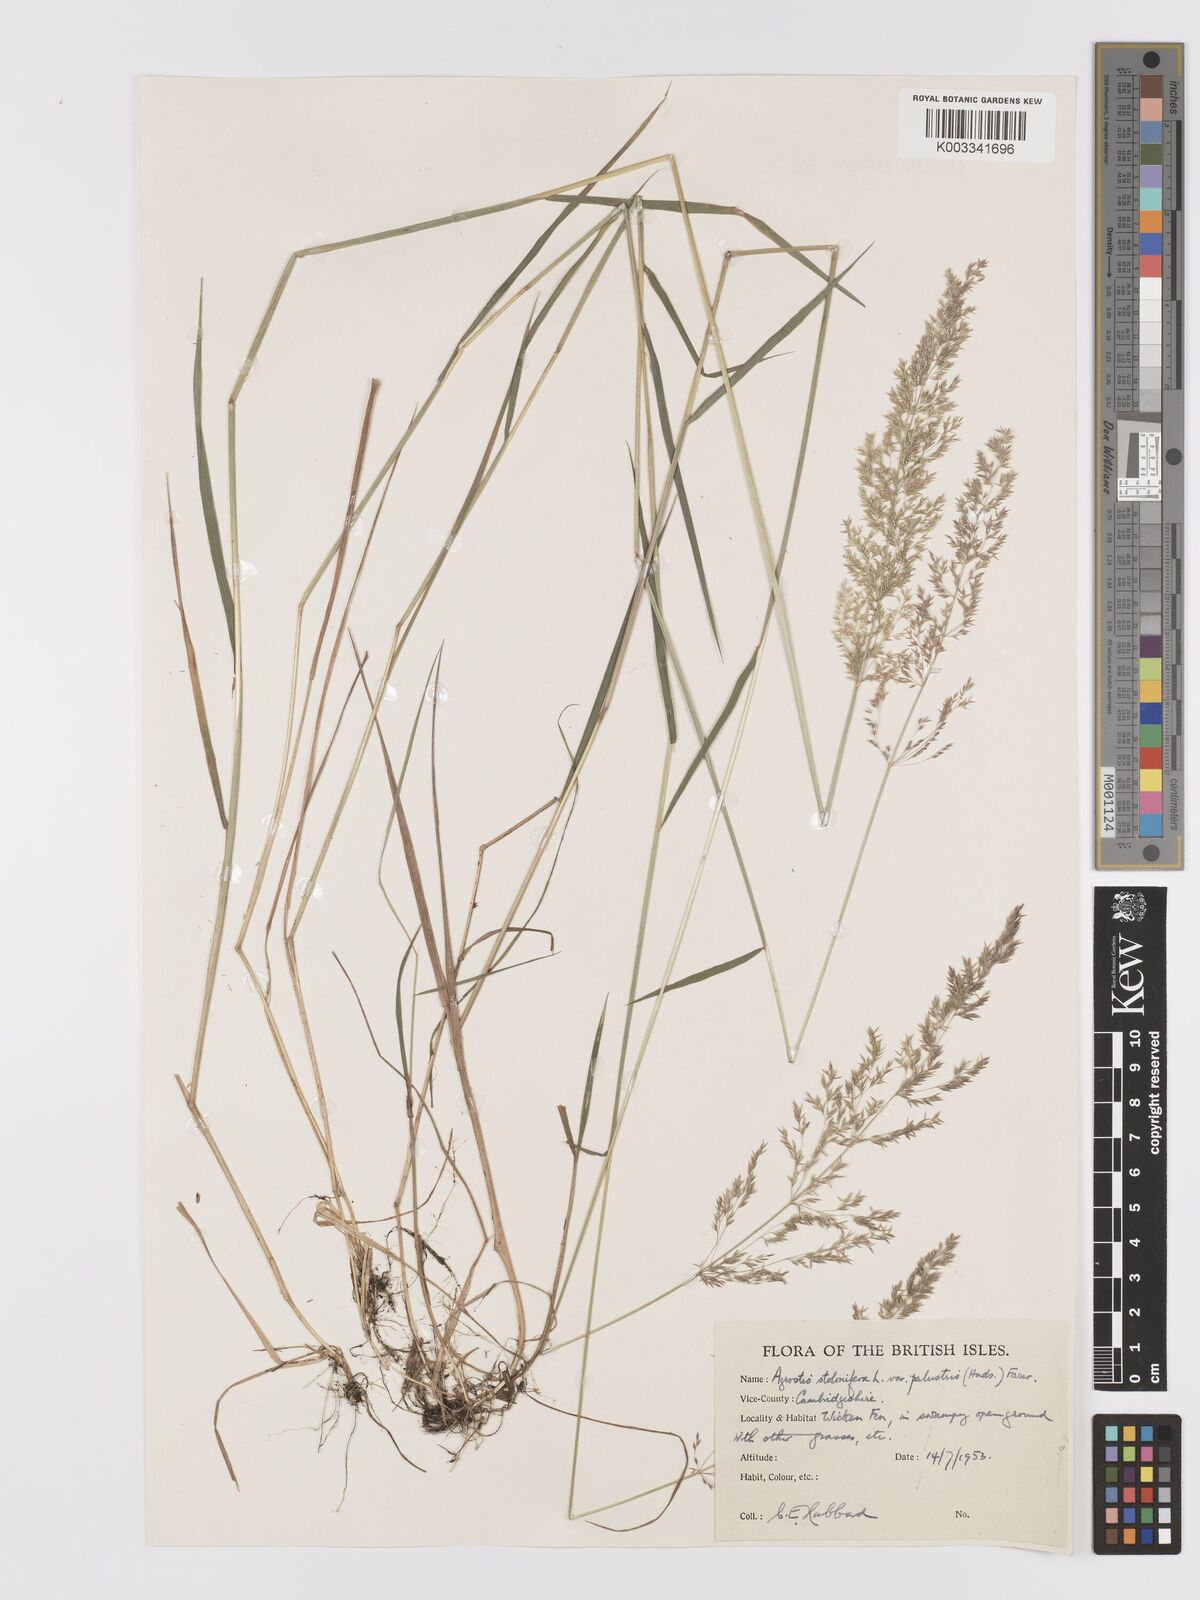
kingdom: Plantae
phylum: Tracheophyta
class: Liliopsida
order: Poales
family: Poaceae
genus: Agrostis
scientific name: Agrostis stolonifera
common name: Creeping bentgrass
